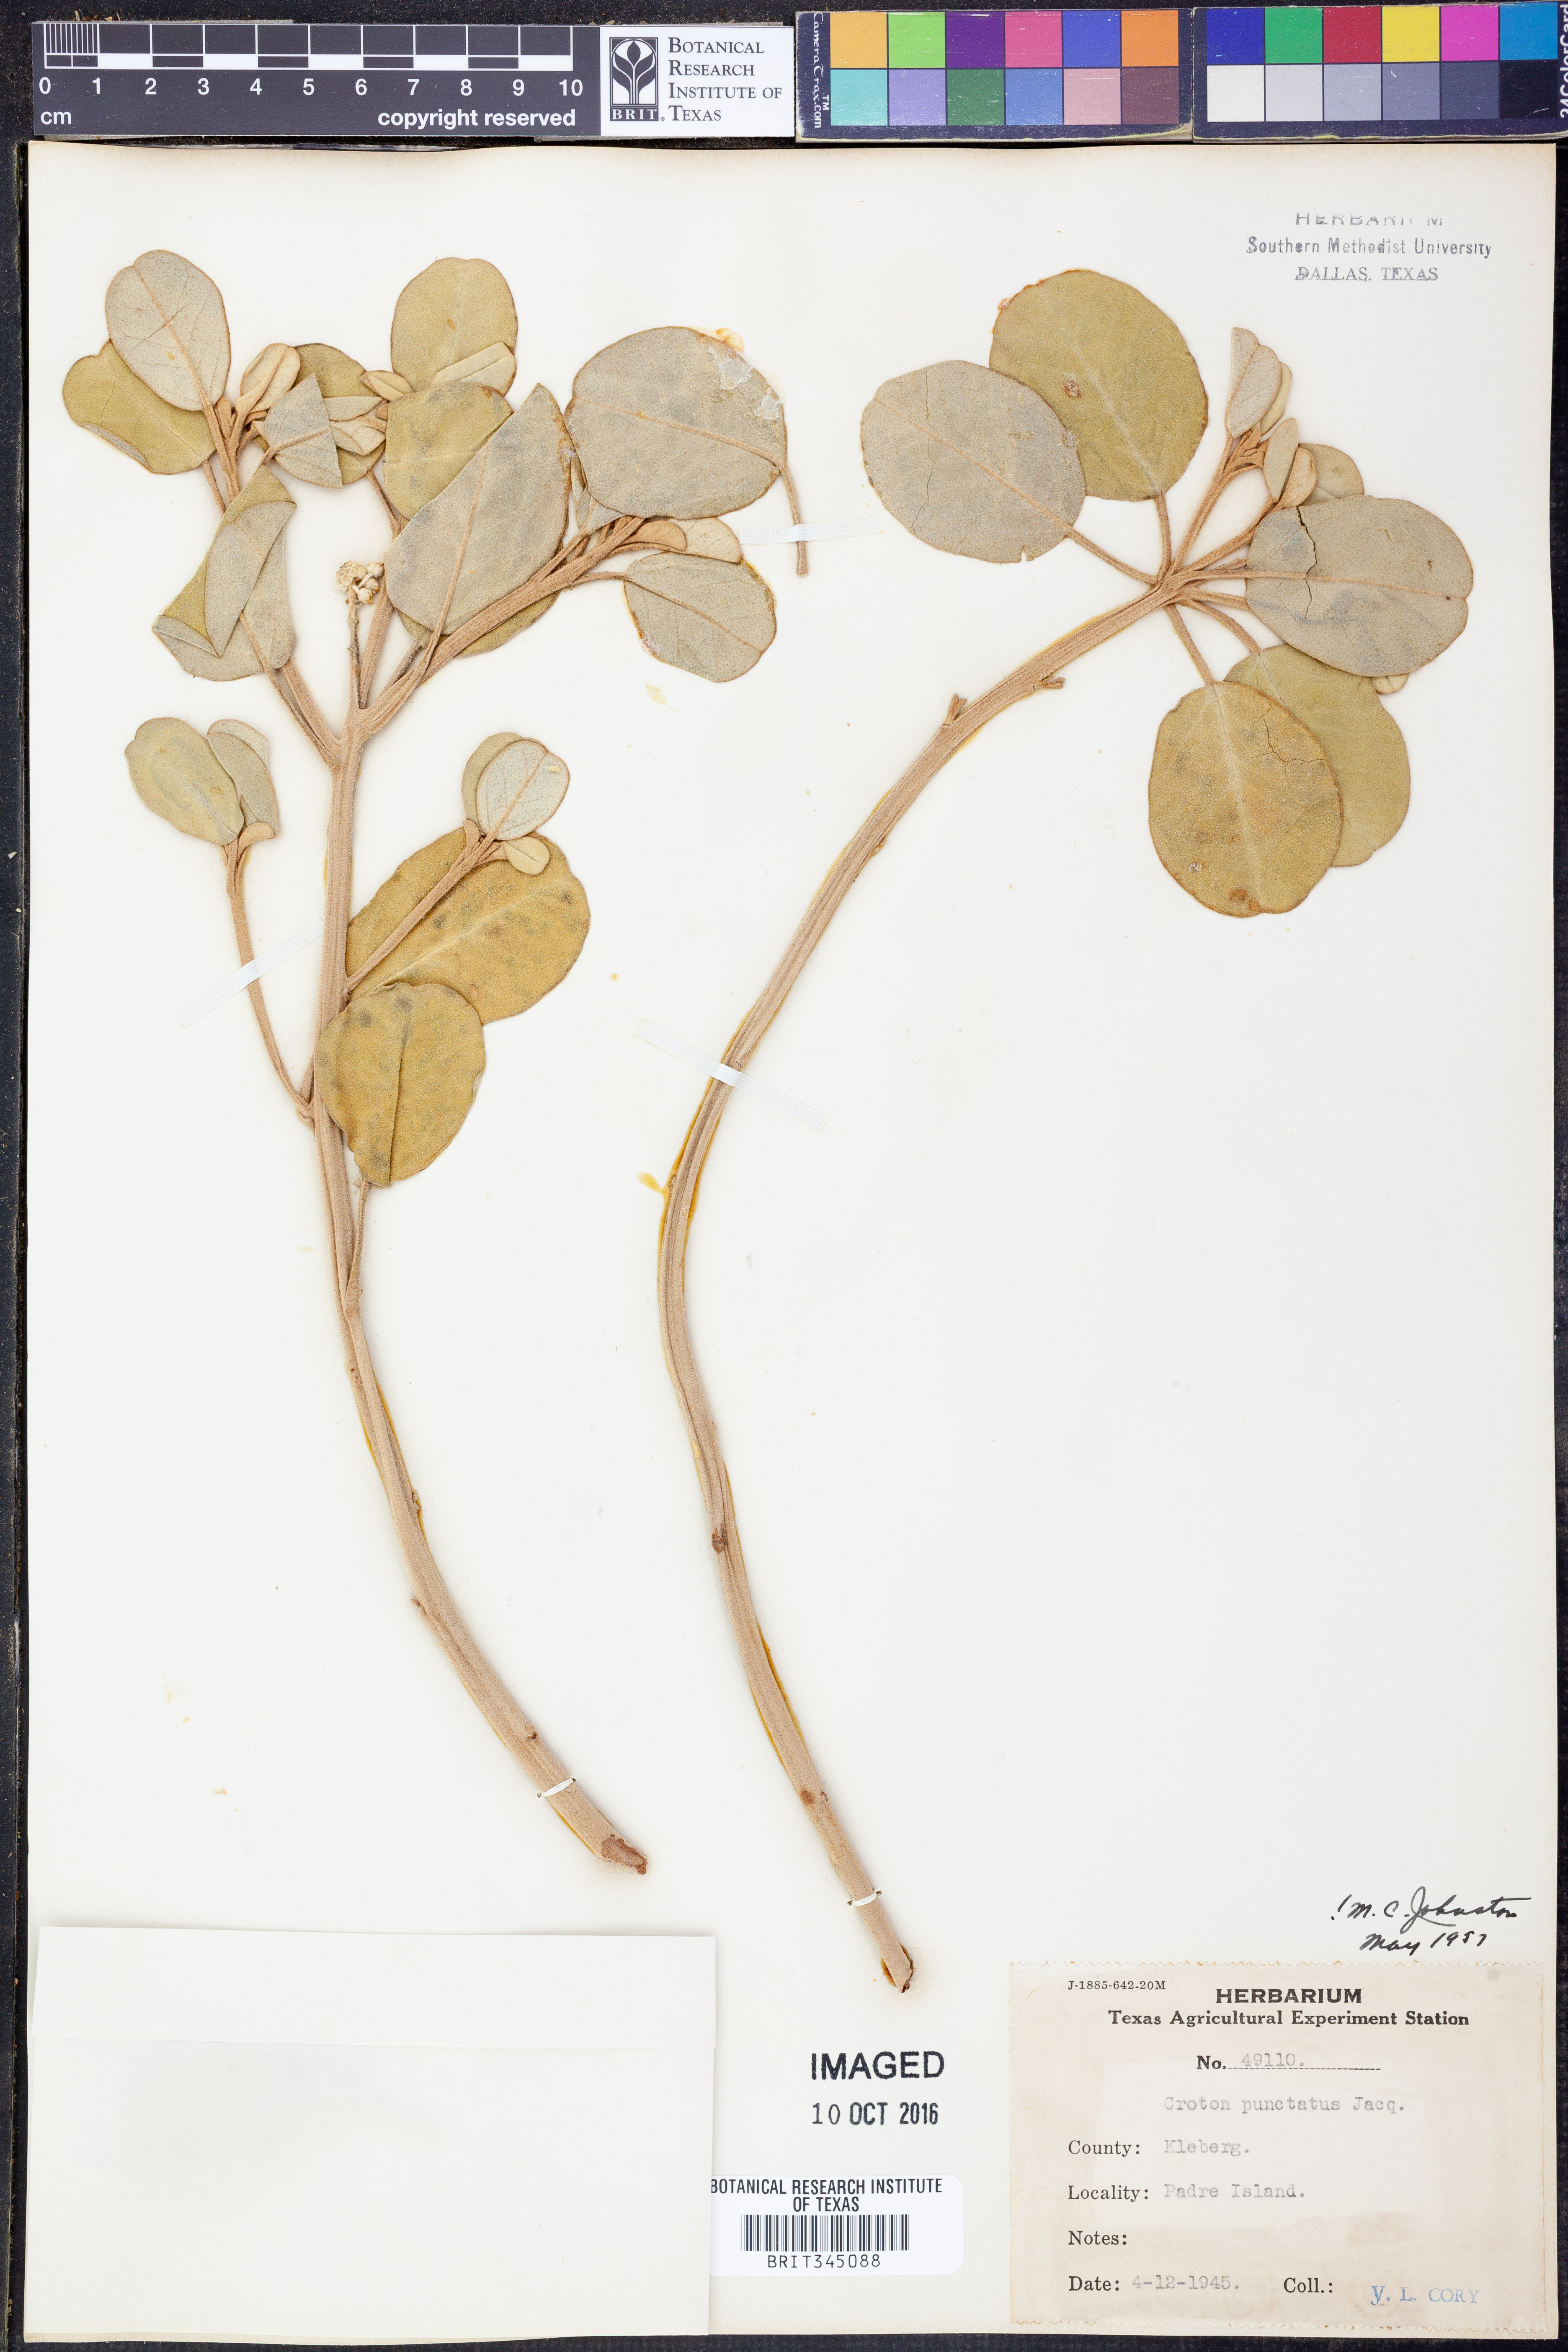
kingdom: Plantae
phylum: Tracheophyta
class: Magnoliopsida
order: Malpighiales
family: Euphorbiaceae
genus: Croton
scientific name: Croton punctatus
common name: Beach-tea
